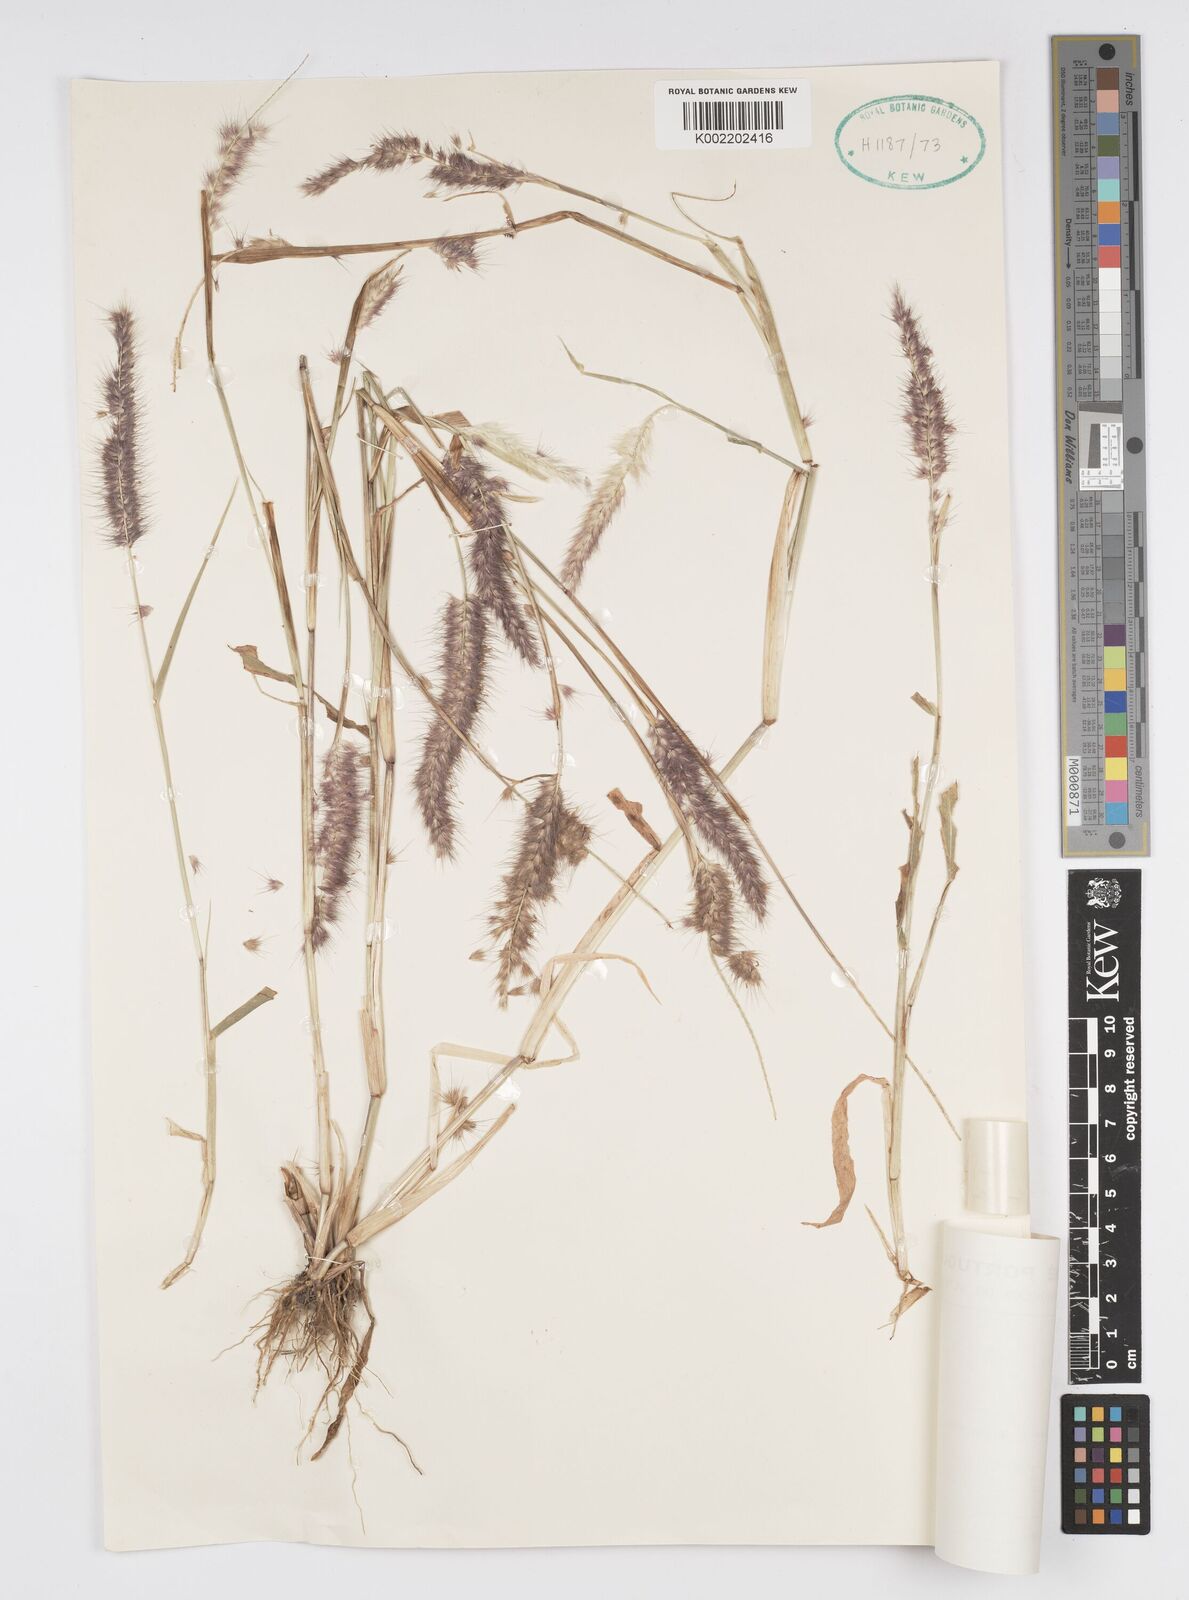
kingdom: Plantae
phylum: Tracheophyta
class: Liliopsida
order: Poales
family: Poaceae
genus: Setaria
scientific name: Setaria parviflora
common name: Knotroot bristle-grass
